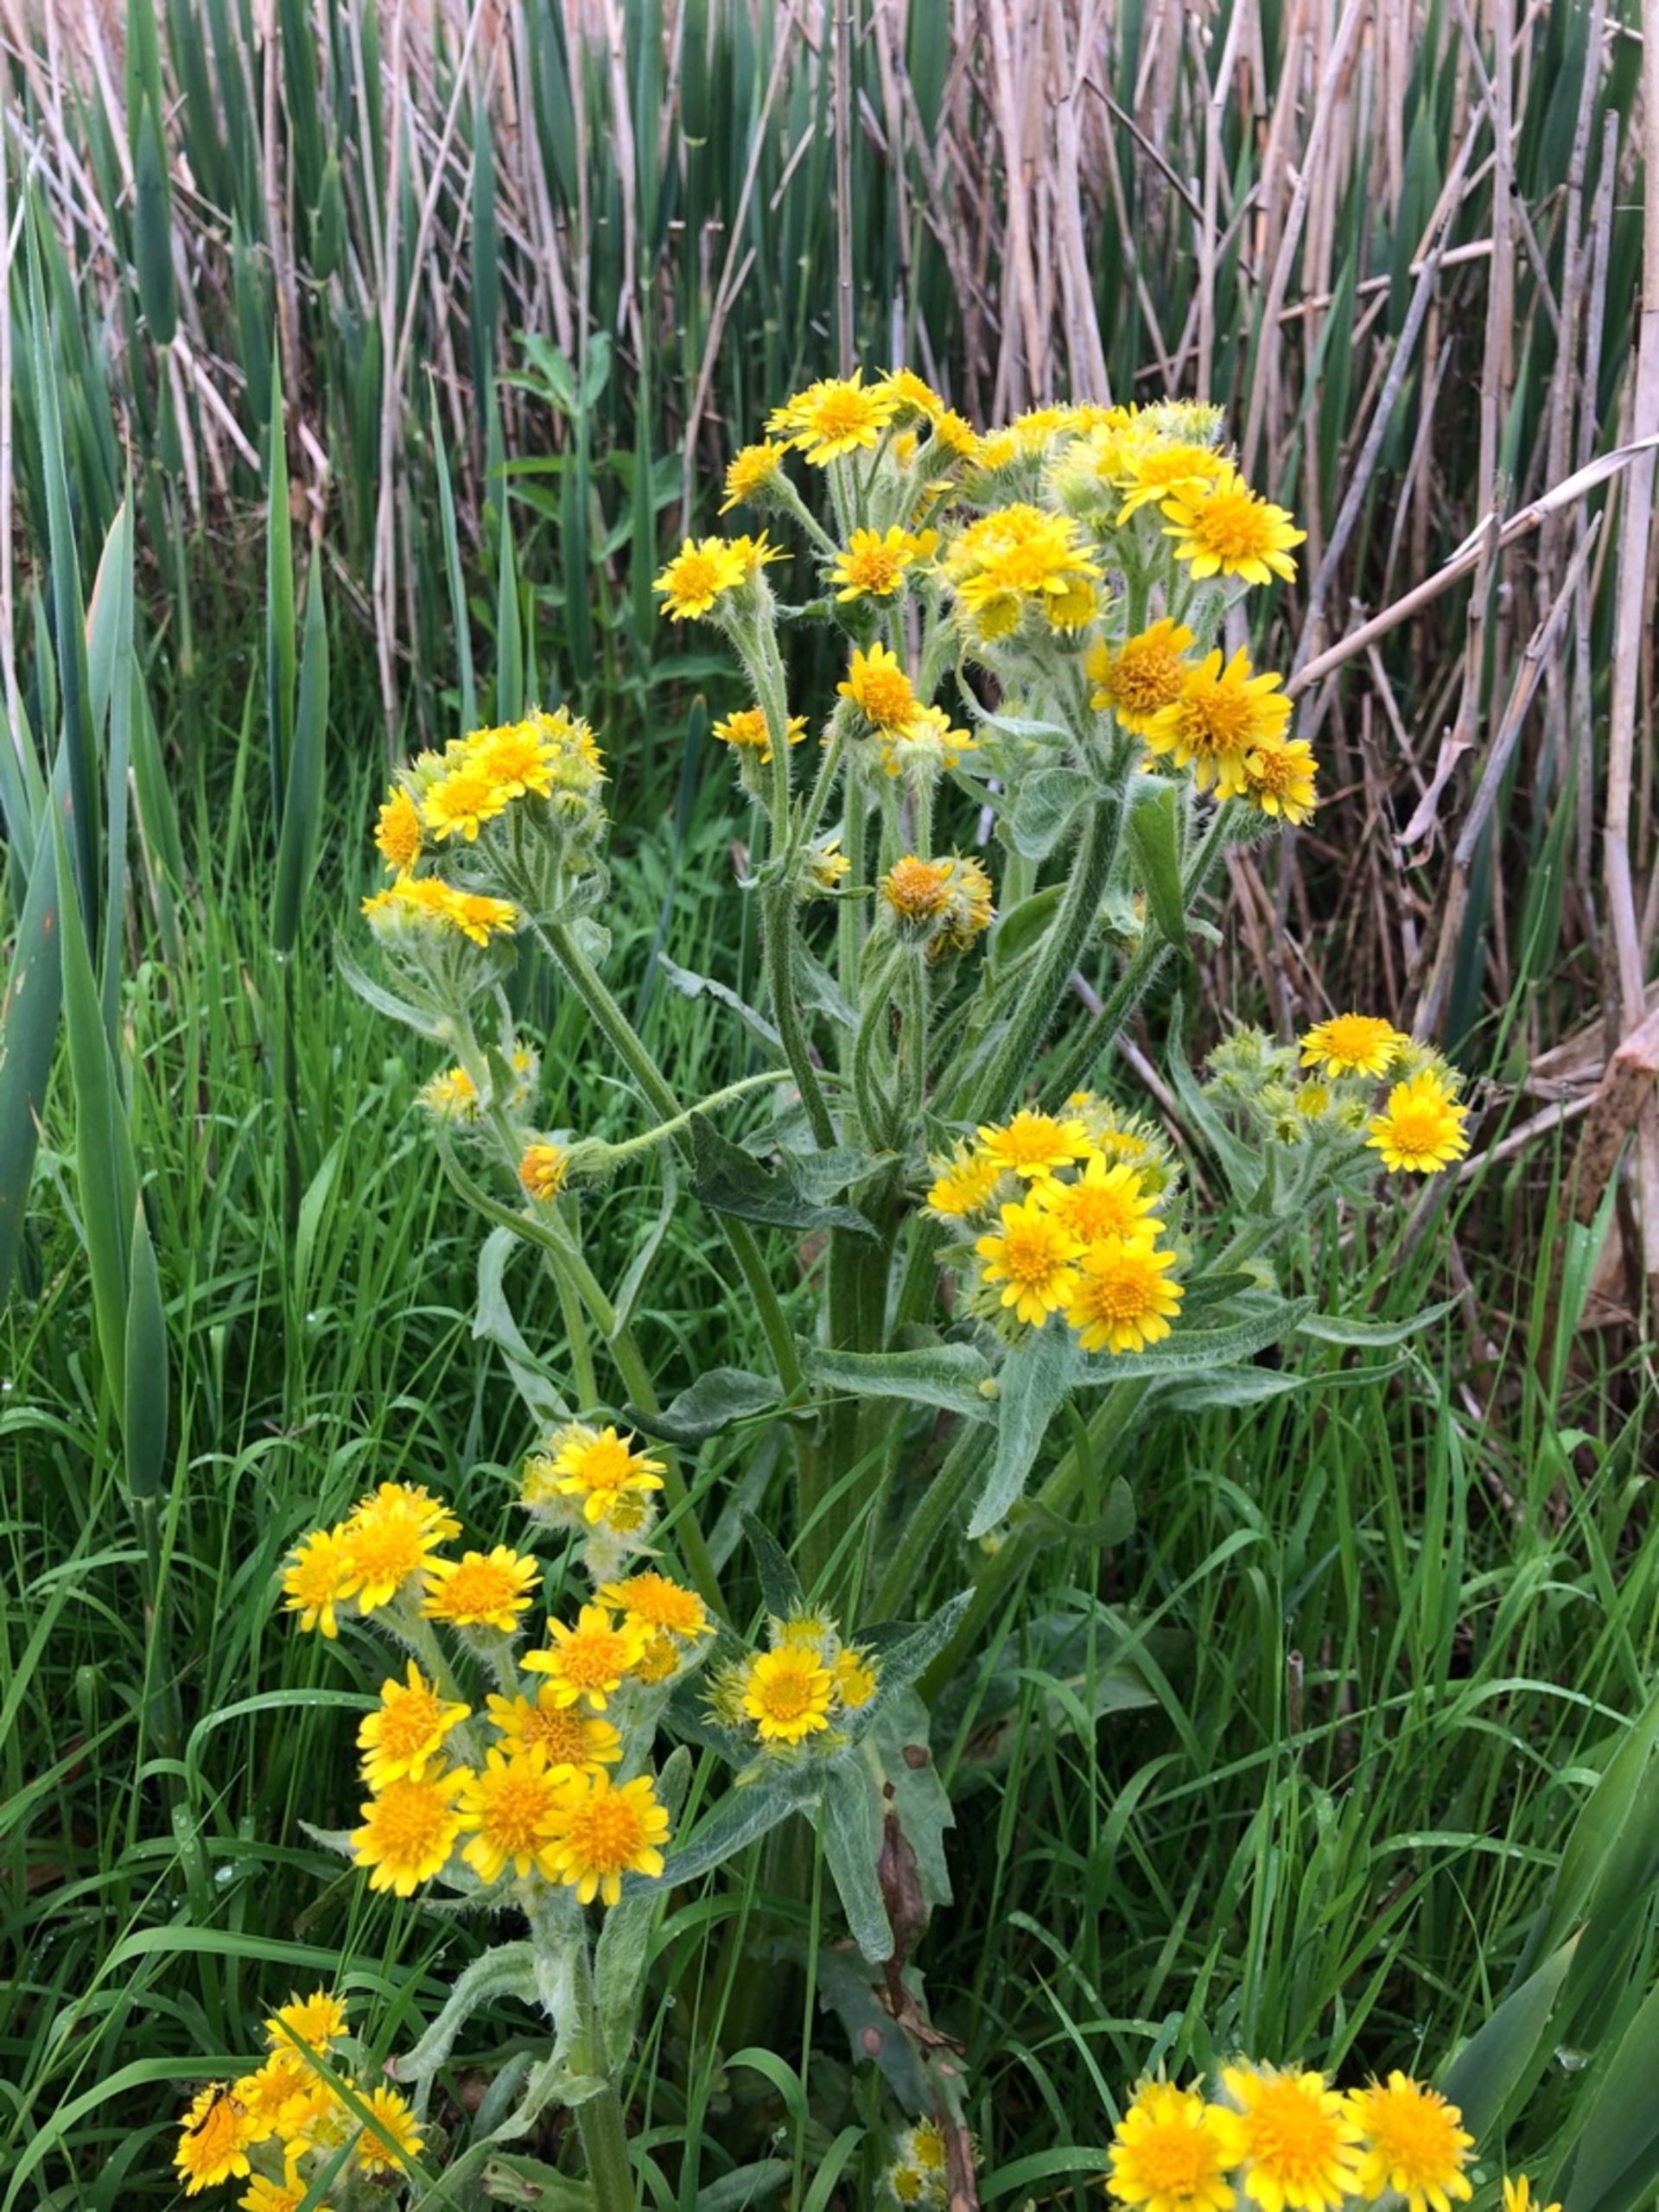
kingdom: Plantae
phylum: Tracheophyta
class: Magnoliopsida
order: Asterales
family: Asteraceae
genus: Tephroseris
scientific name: Tephroseris palustris
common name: Kær-fnokurt
